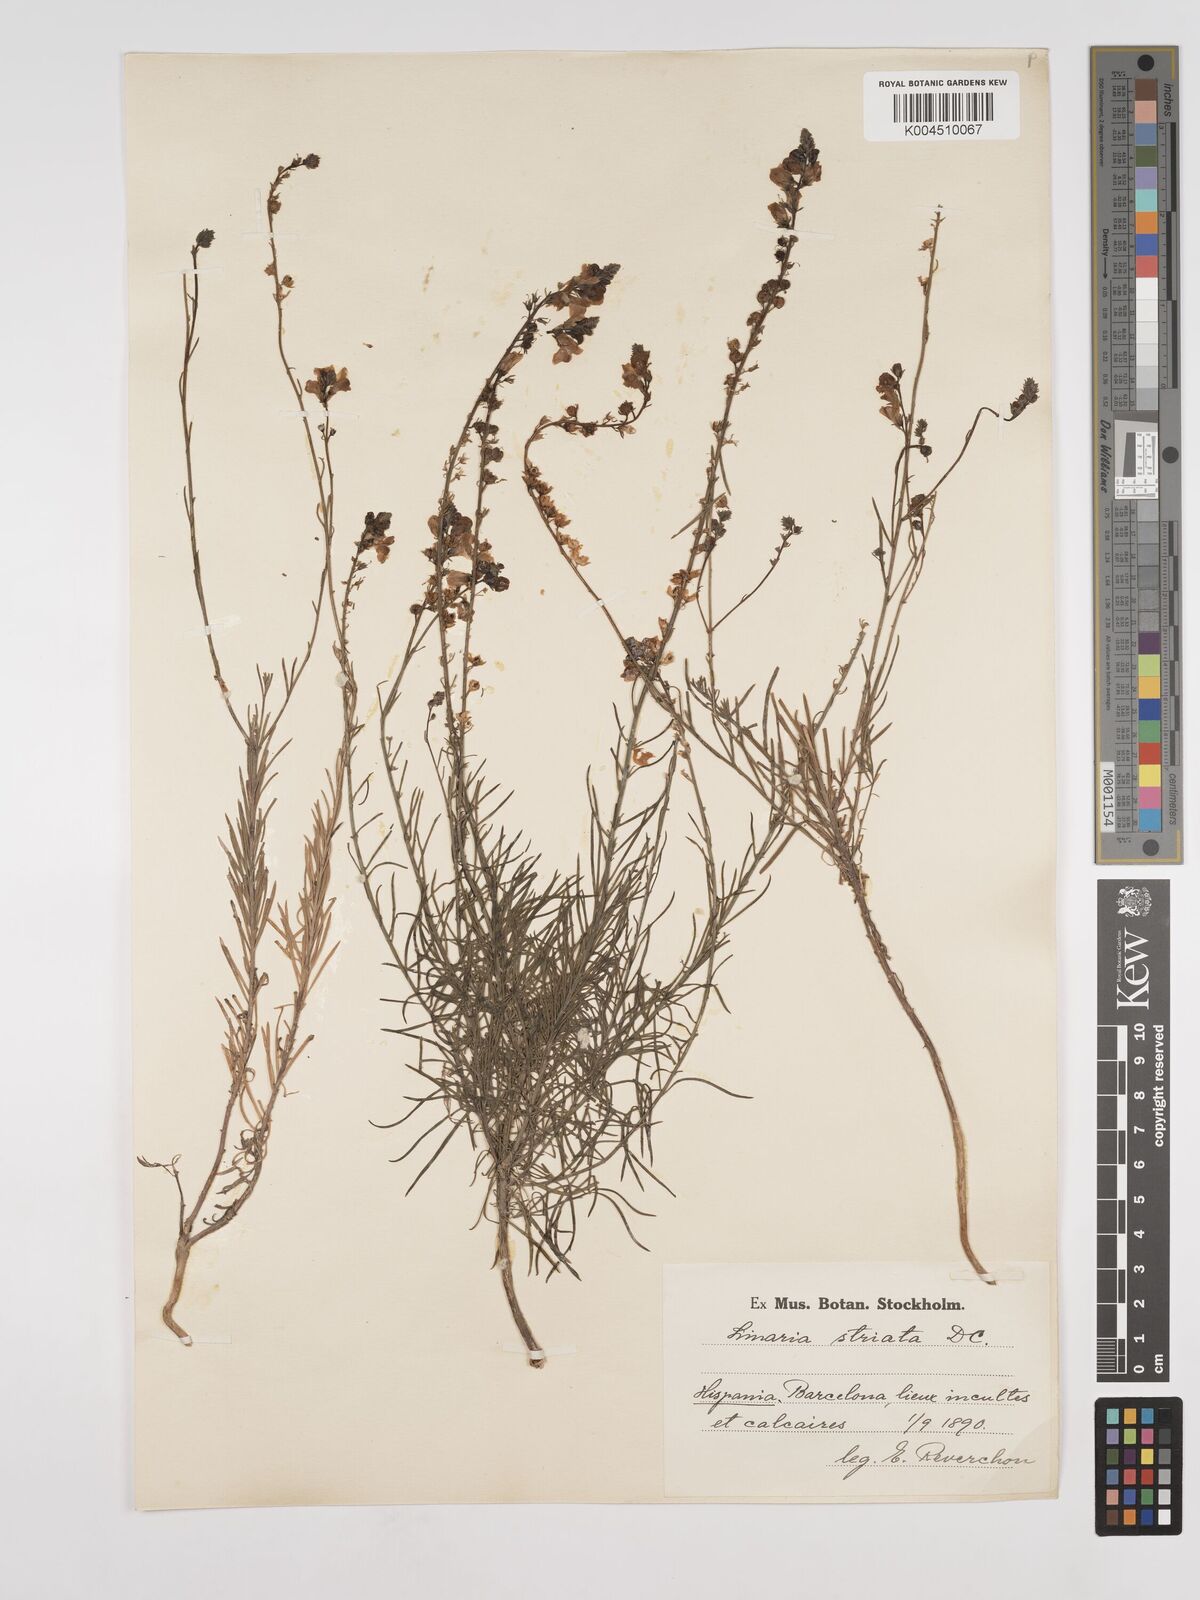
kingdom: Plantae
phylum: Tracheophyta
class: Magnoliopsida
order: Lamiales
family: Plantaginaceae
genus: Linaria
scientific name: Linaria
